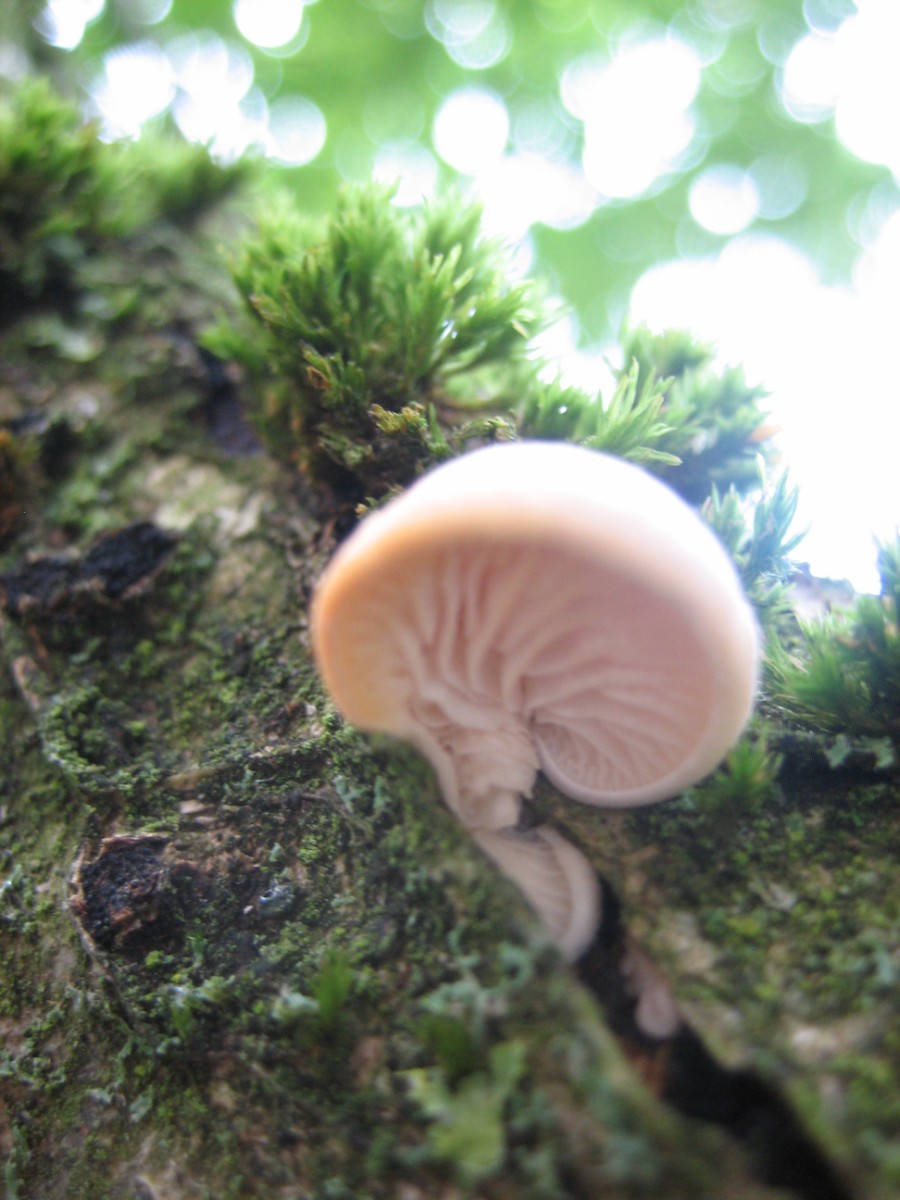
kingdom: Fungi
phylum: Basidiomycota
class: Agaricomycetes
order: Agaricales
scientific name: Agaricales
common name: champignonordenen
